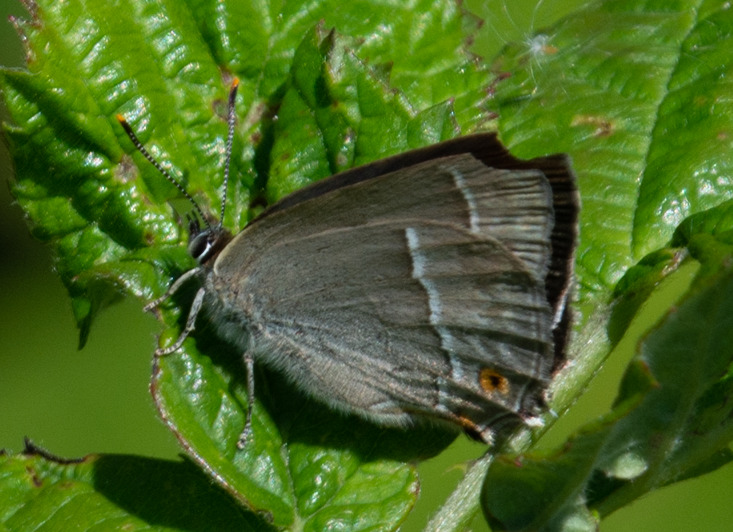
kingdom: Animalia
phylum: Arthropoda
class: Insecta
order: Lepidoptera
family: Lycaenidae
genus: Quercusia
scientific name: Quercusia quercus
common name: Blåhale
